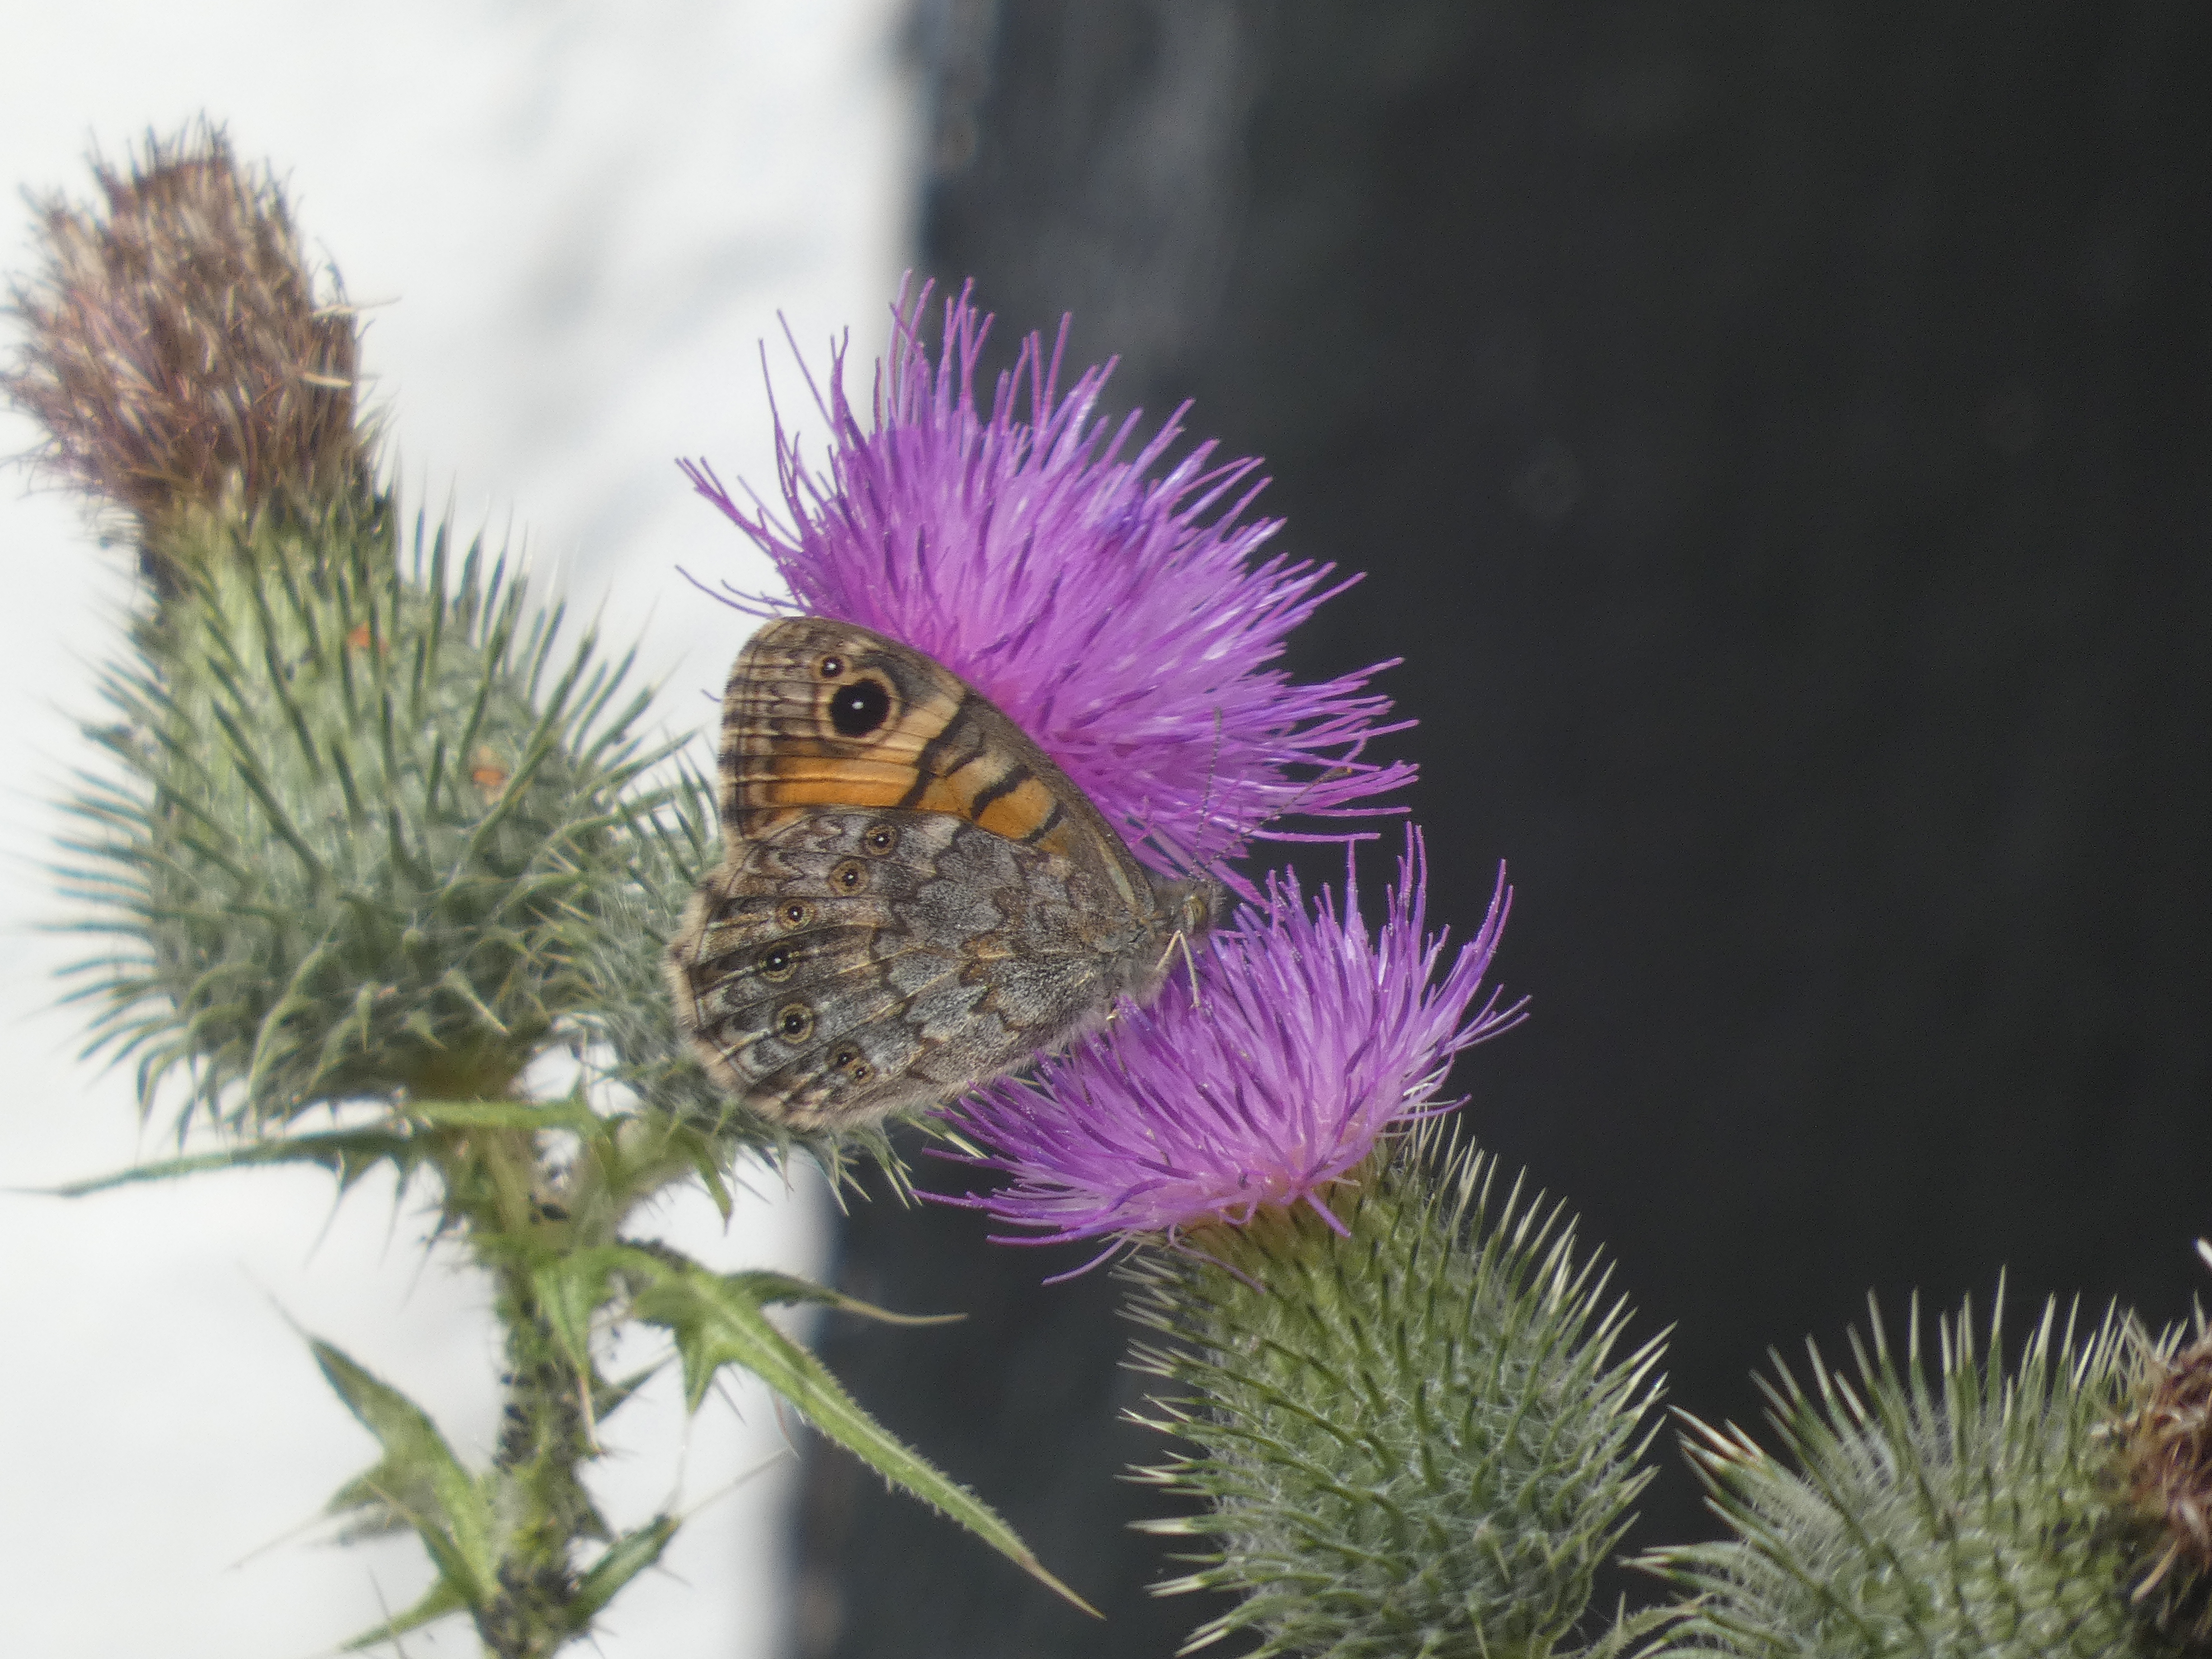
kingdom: Animalia
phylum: Arthropoda
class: Insecta
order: Lepidoptera
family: Nymphalidae
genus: Pararge
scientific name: Pararge Lasiommata megera
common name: Vejrandøje
